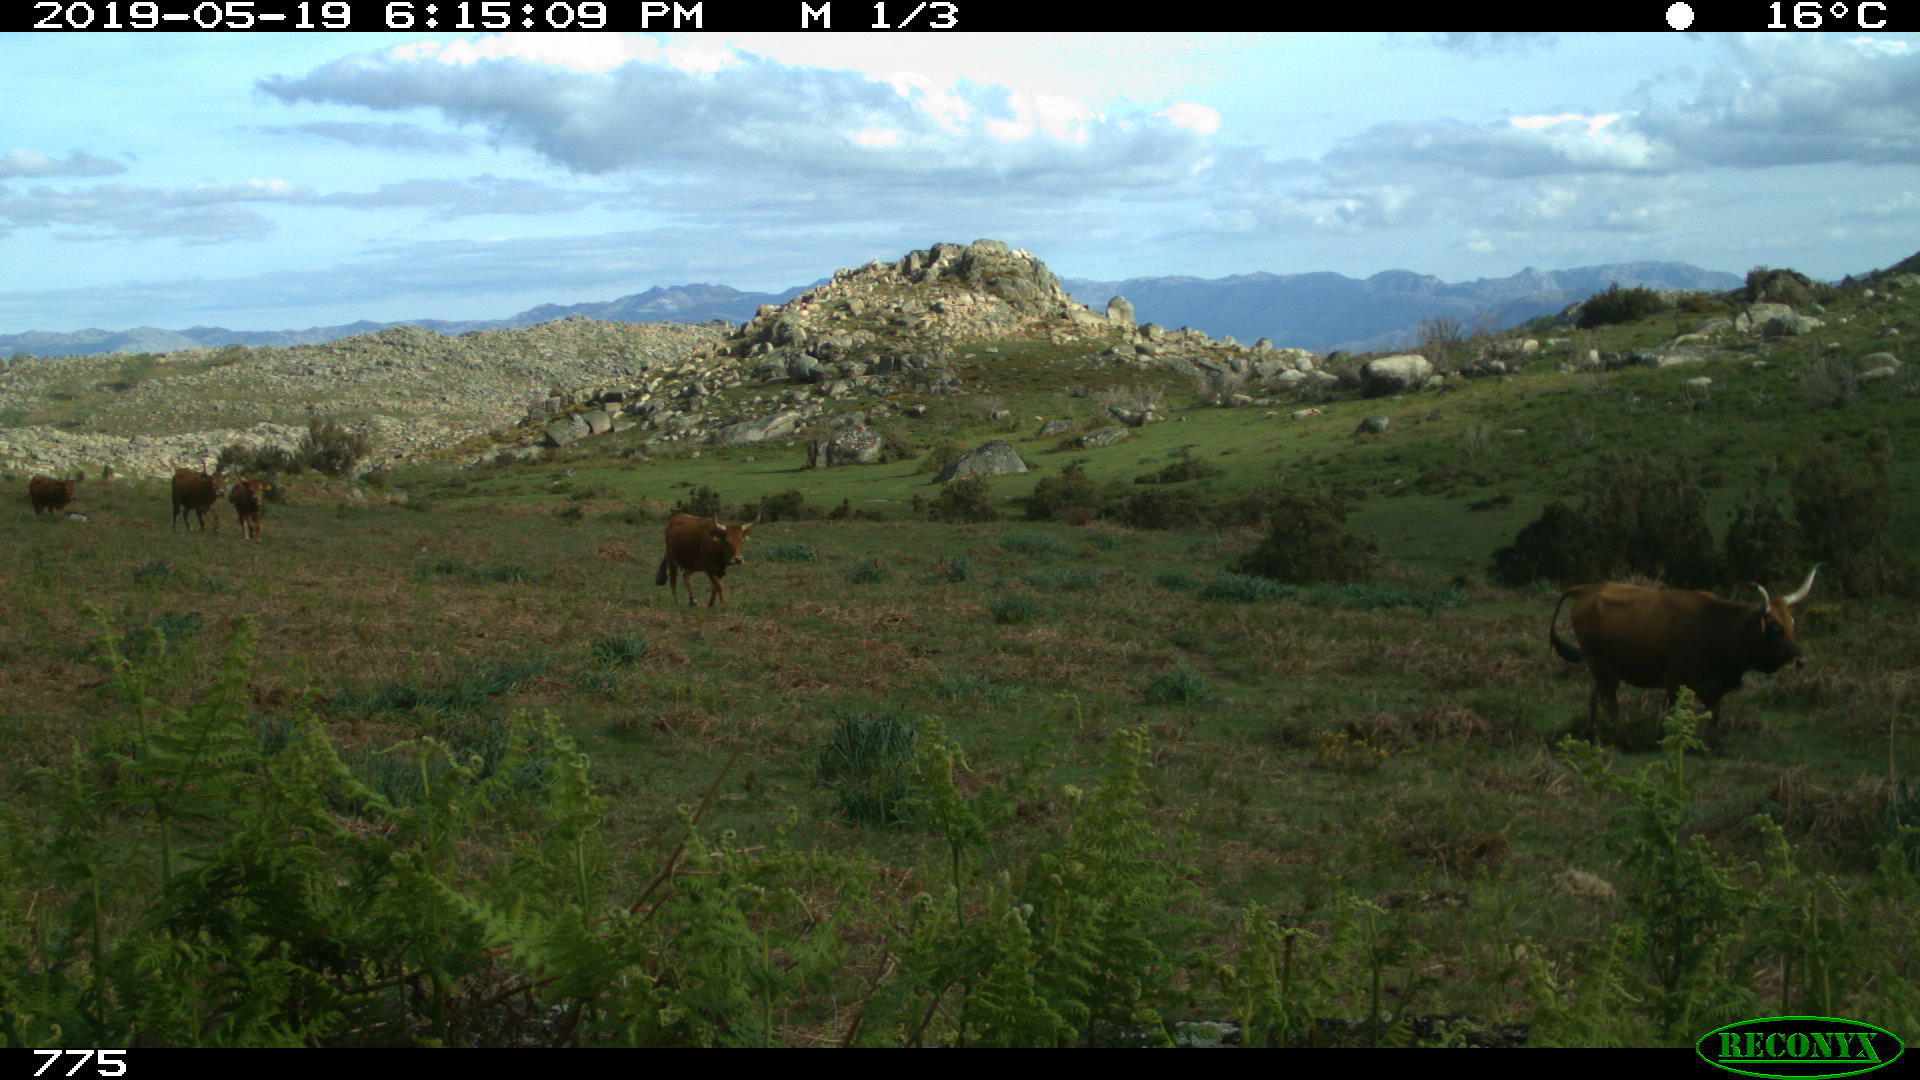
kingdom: Animalia
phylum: Chordata
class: Mammalia
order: Artiodactyla
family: Bovidae
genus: Bos
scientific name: Bos taurus
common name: Domesticated cattle
